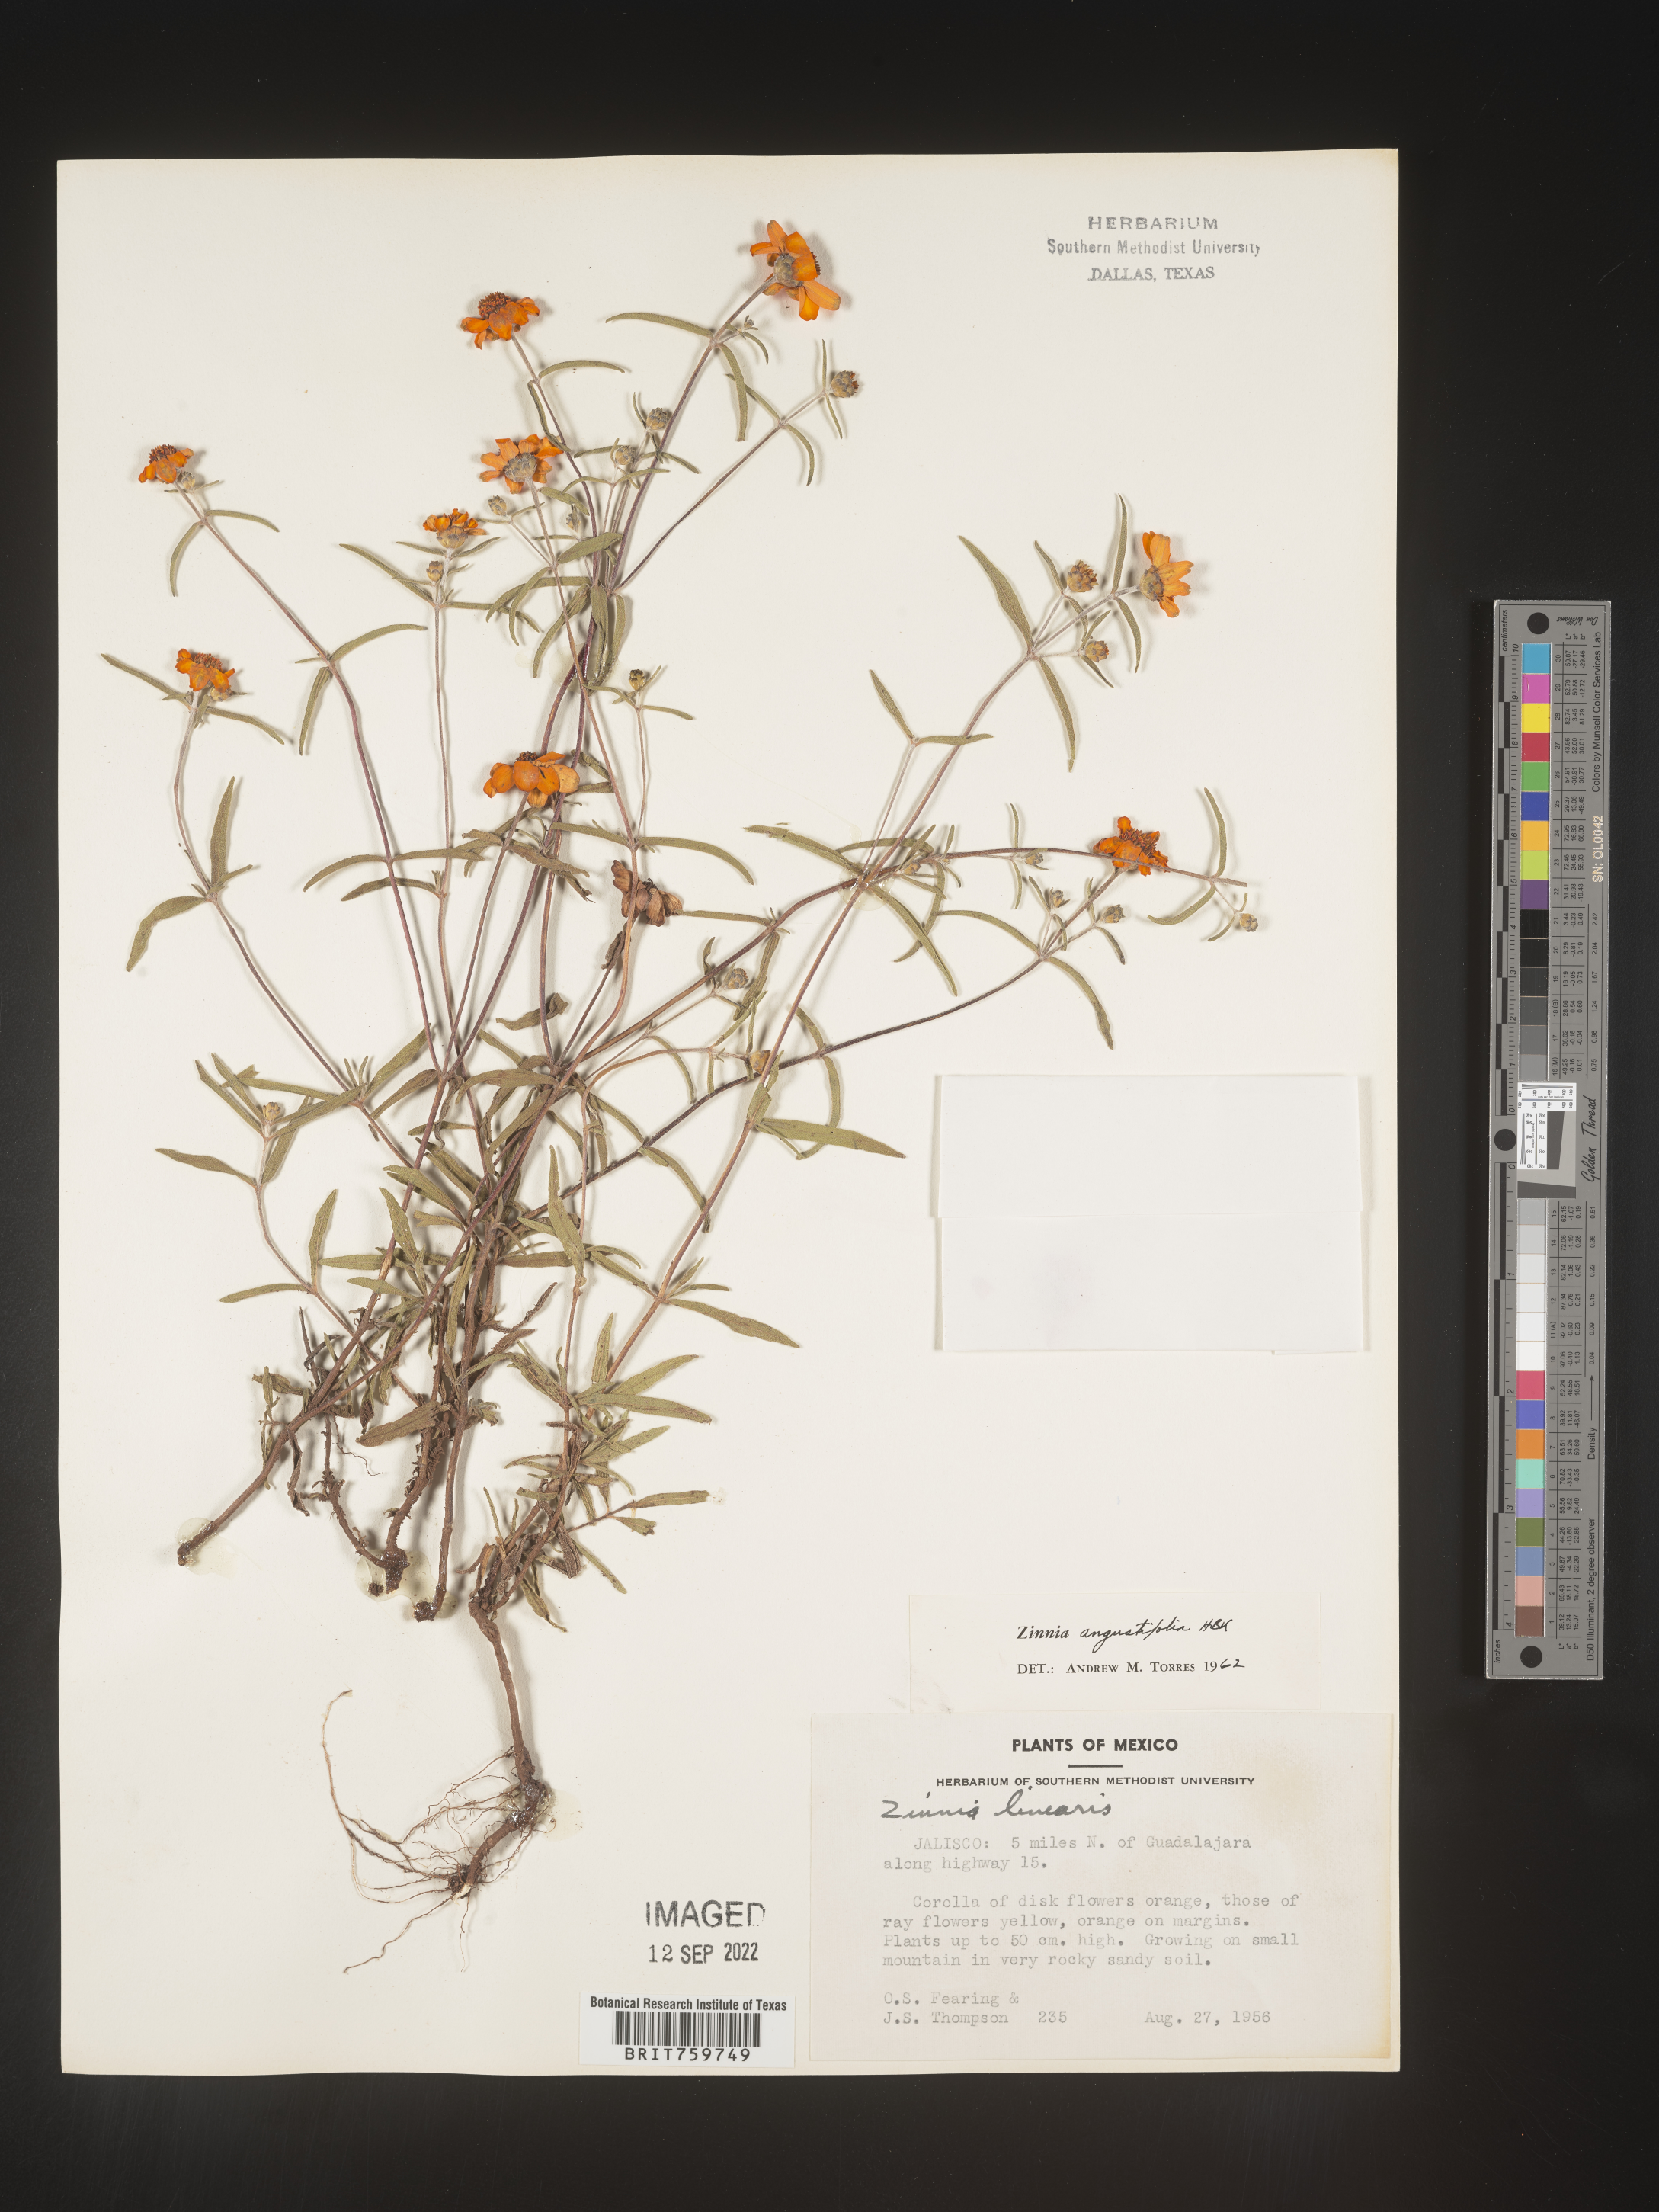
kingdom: Plantae
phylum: Tracheophyta
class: Magnoliopsida
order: Asterales
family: Asteraceae
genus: Zinnia
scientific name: Zinnia
